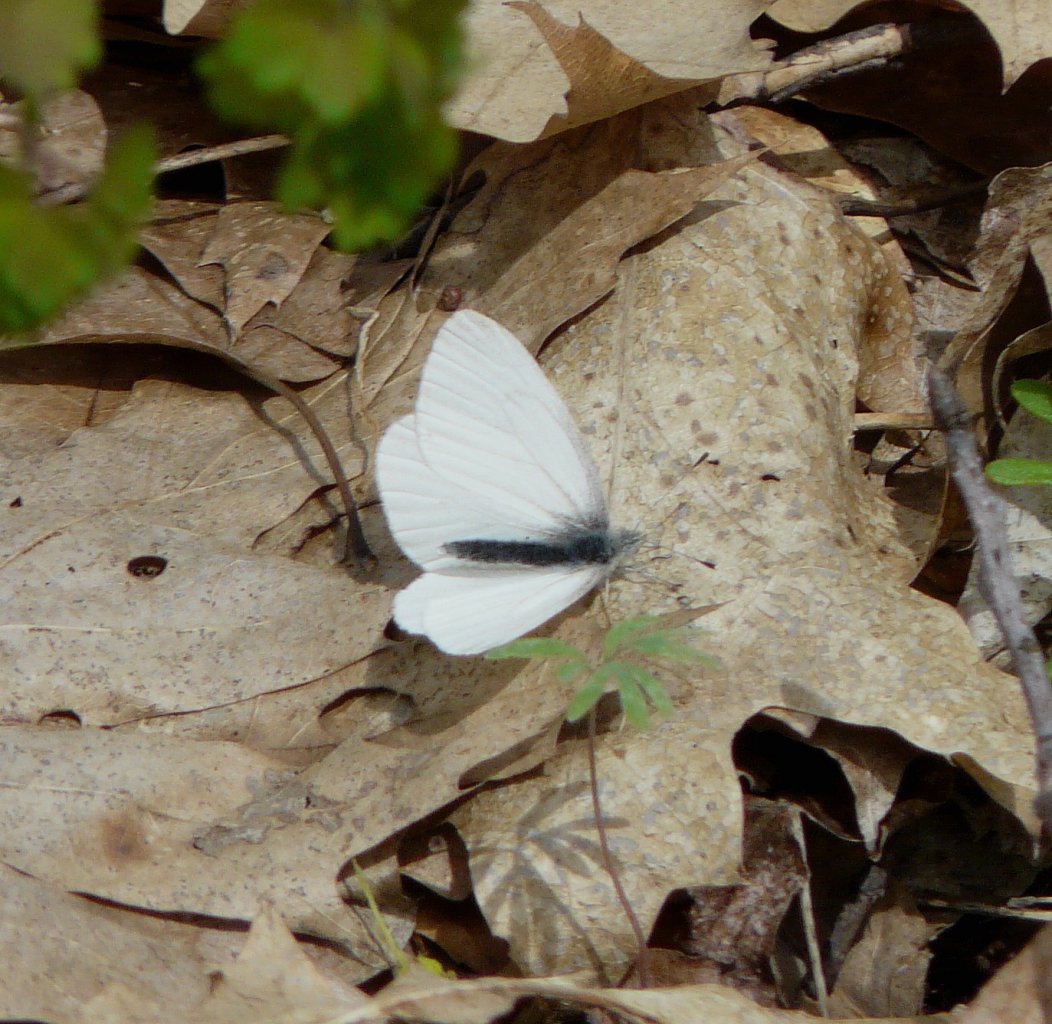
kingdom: Animalia
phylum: Arthropoda
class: Insecta
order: Lepidoptera
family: Pieridae
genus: Pieris
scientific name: Pieris virginiensis
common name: West Virginia White
